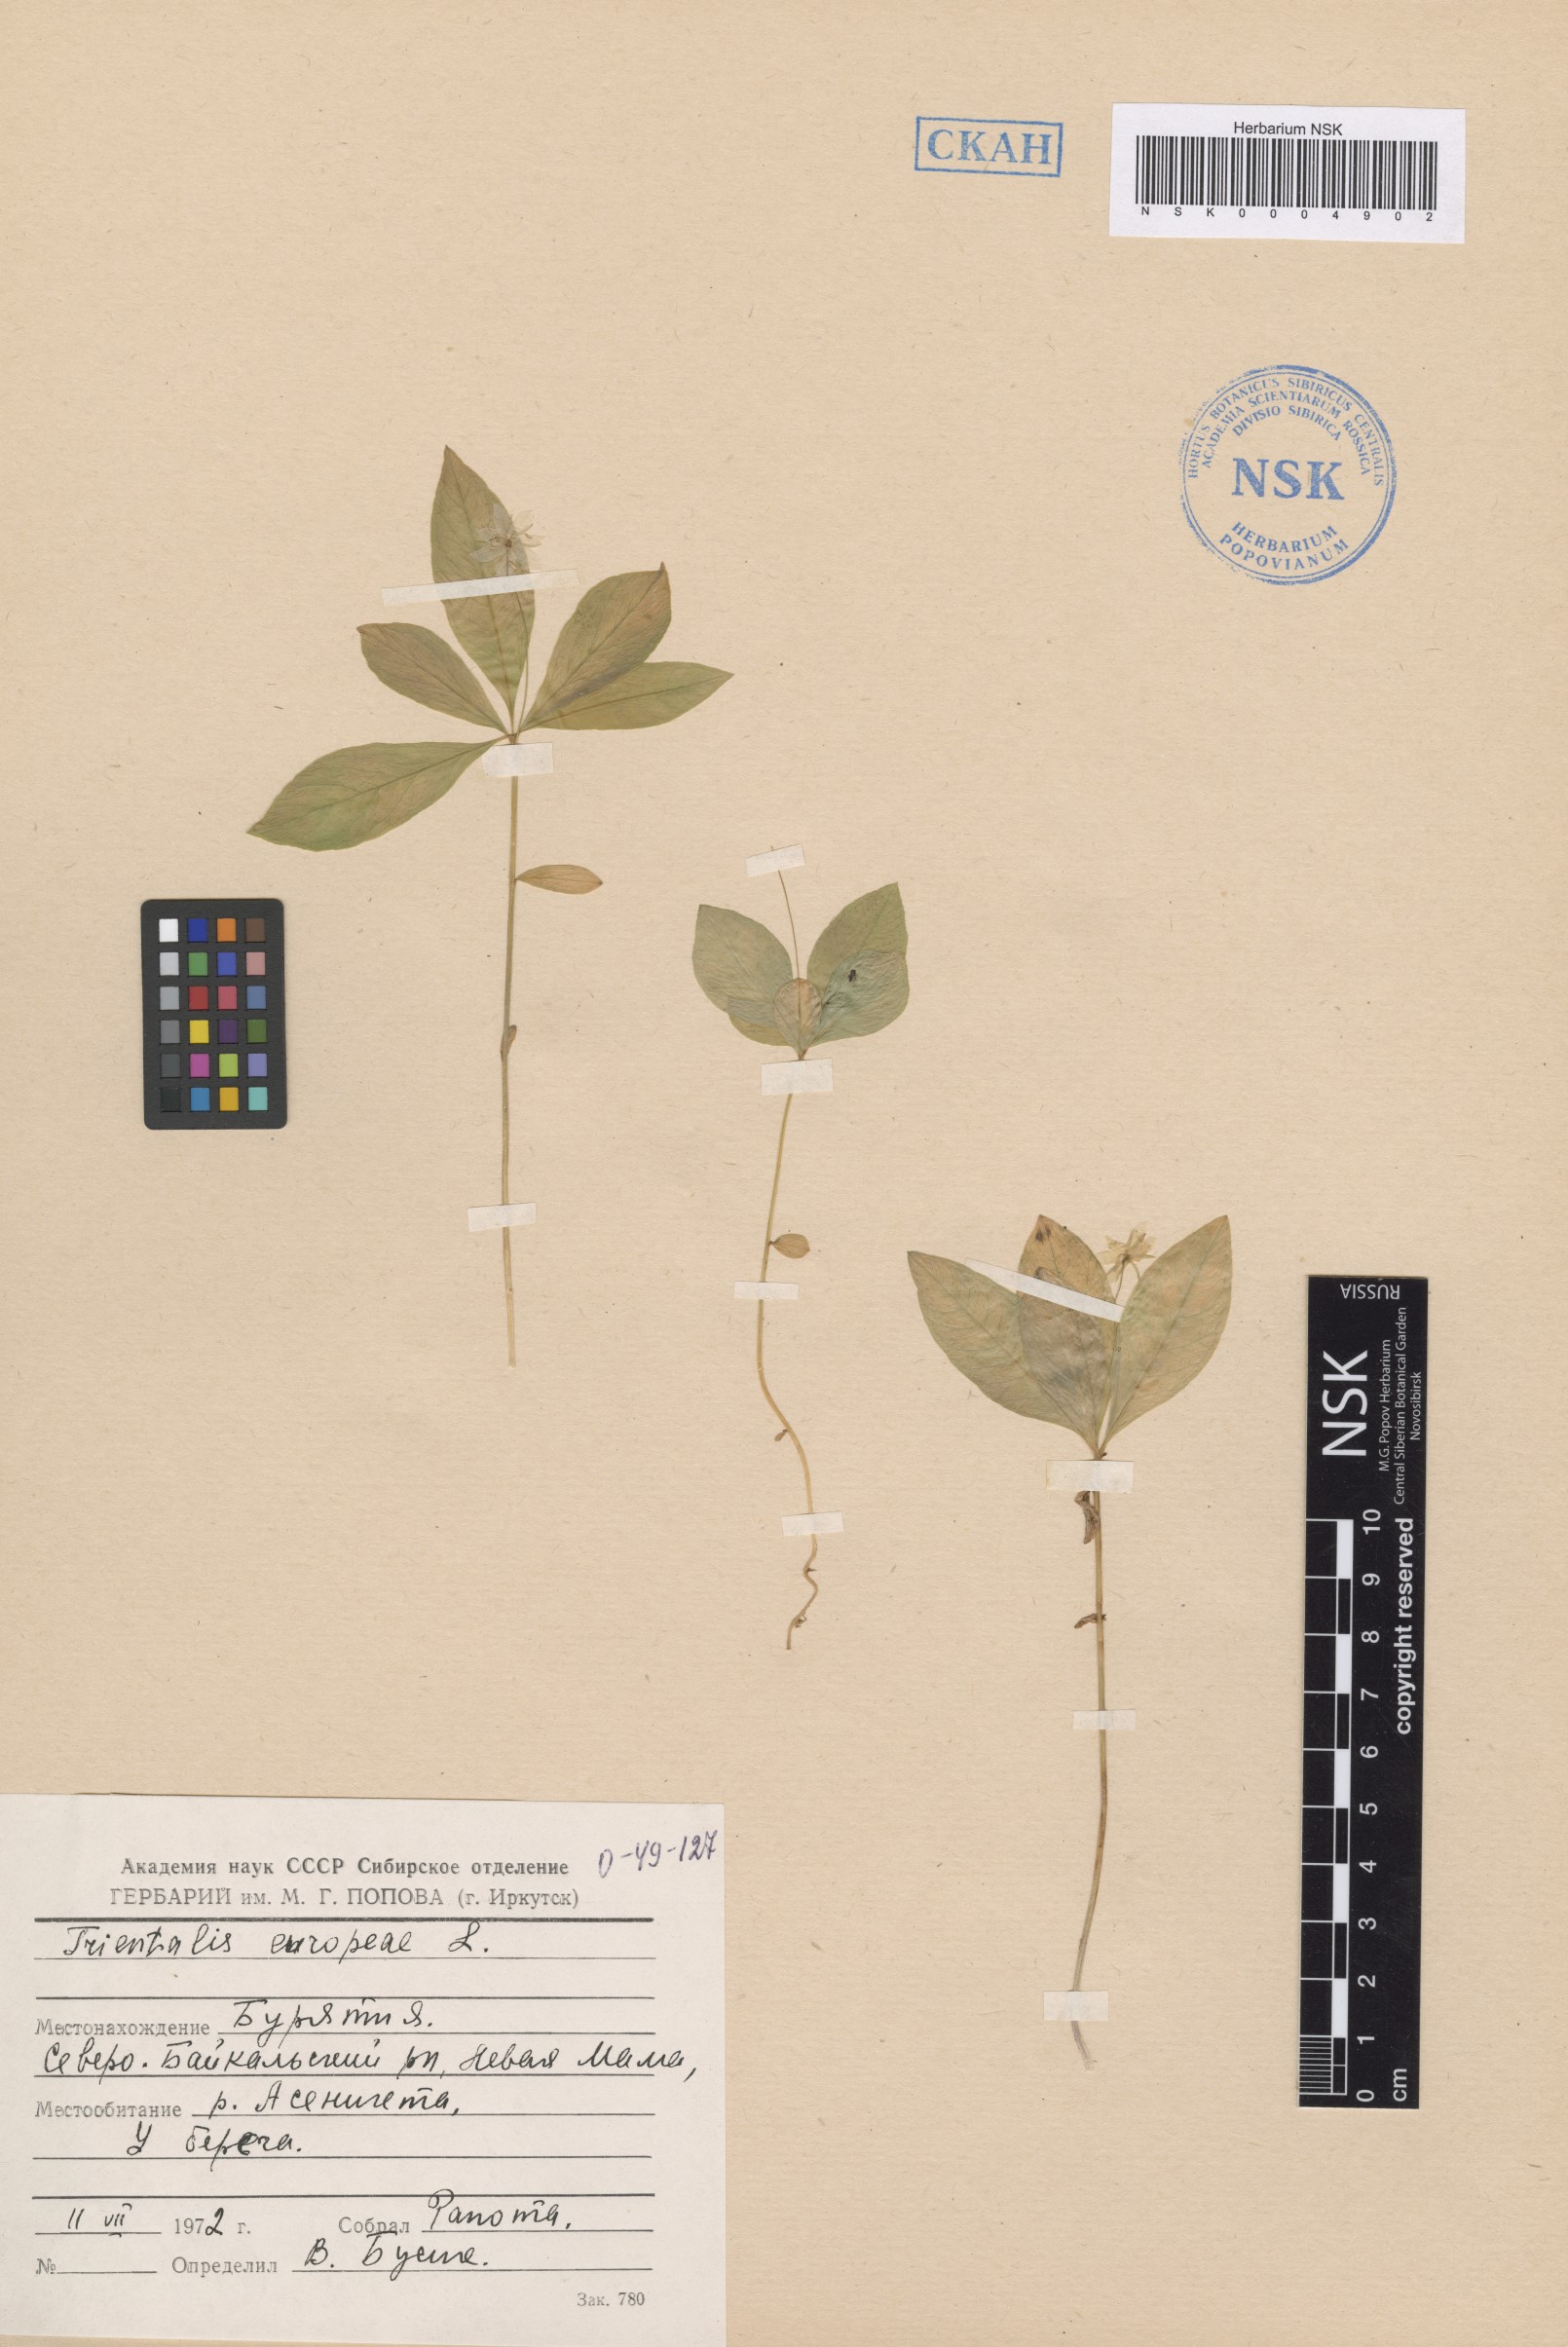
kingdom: Plantae
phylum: Tracheophyta
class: Magnoliopsida
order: Ericales
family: Primulaceae
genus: Lysimachia
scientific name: Lysimachia europaea
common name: Arctic starflower
